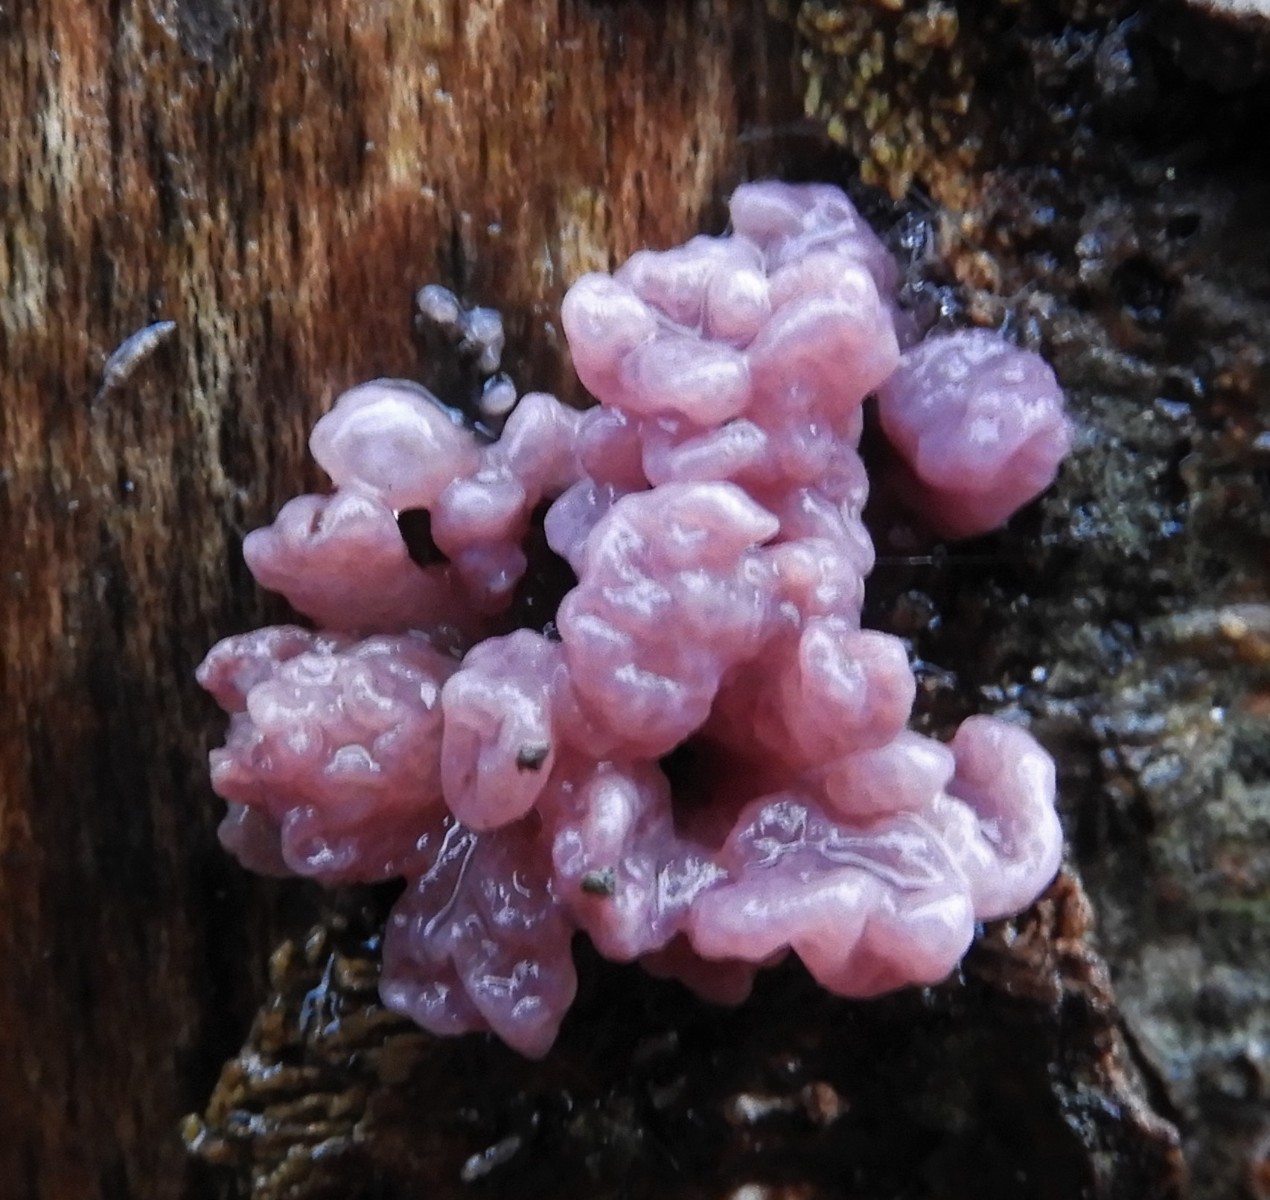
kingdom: Fungi
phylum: Ascomycota
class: Leotiomycetes
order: Helotiales
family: Gelatinodiscaceae
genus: Ascocoryne
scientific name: Ascocoryne sarcoides
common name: rødlilla sejskive
